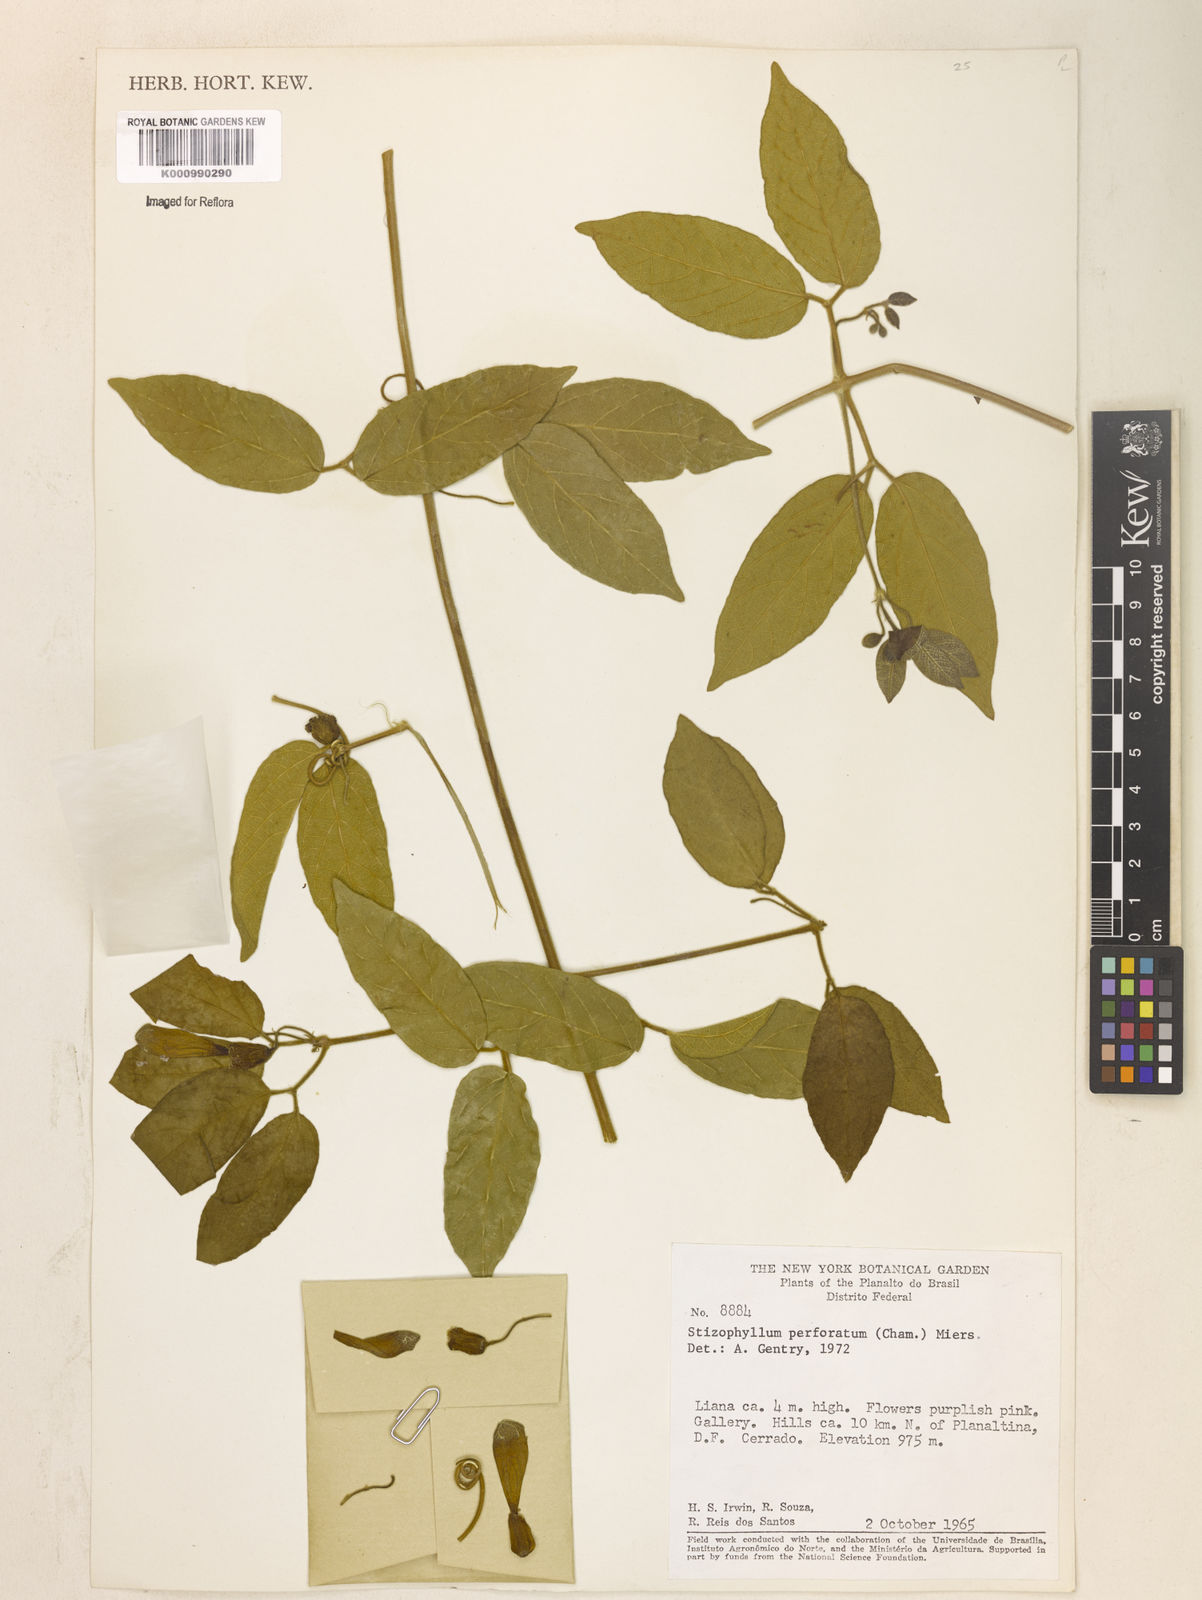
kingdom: Plantae
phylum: Tracheophyta
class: Magnoliopsida
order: Lamiales
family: Bignoniaceae
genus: Stizophyllum
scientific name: Stizophyllum perforatum
